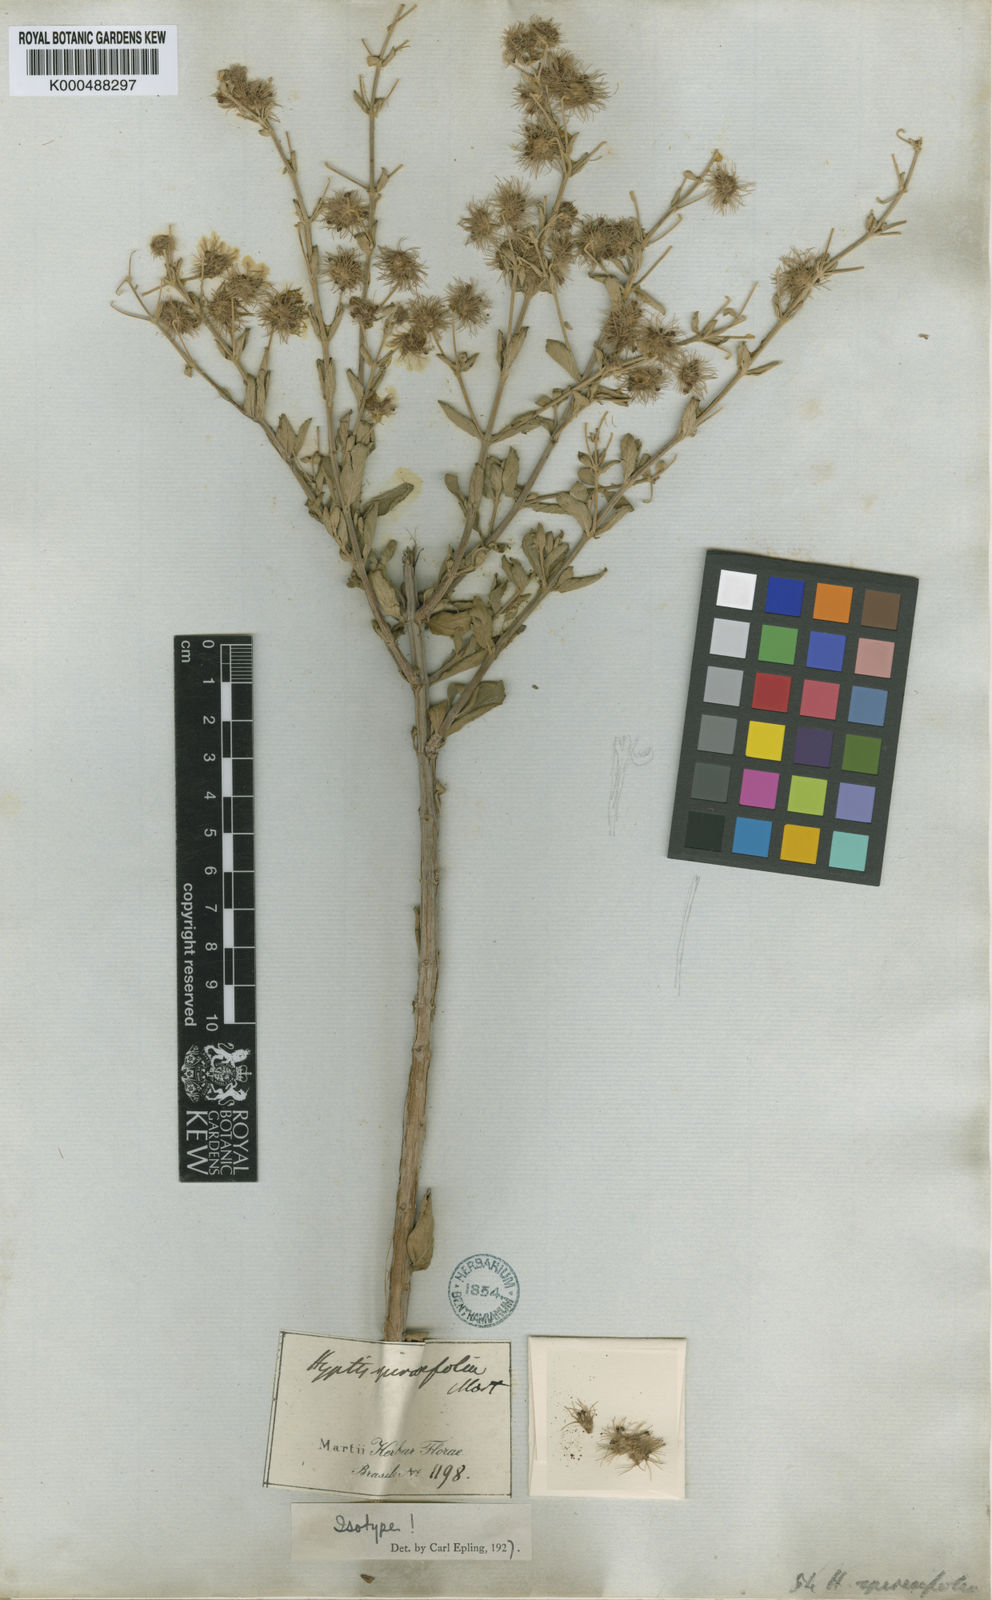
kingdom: Plantae
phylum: Tracheophyta
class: Magnoliopsida
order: Lamiales
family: Lamiaceae
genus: Medusantha
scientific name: Medusantha crinita
